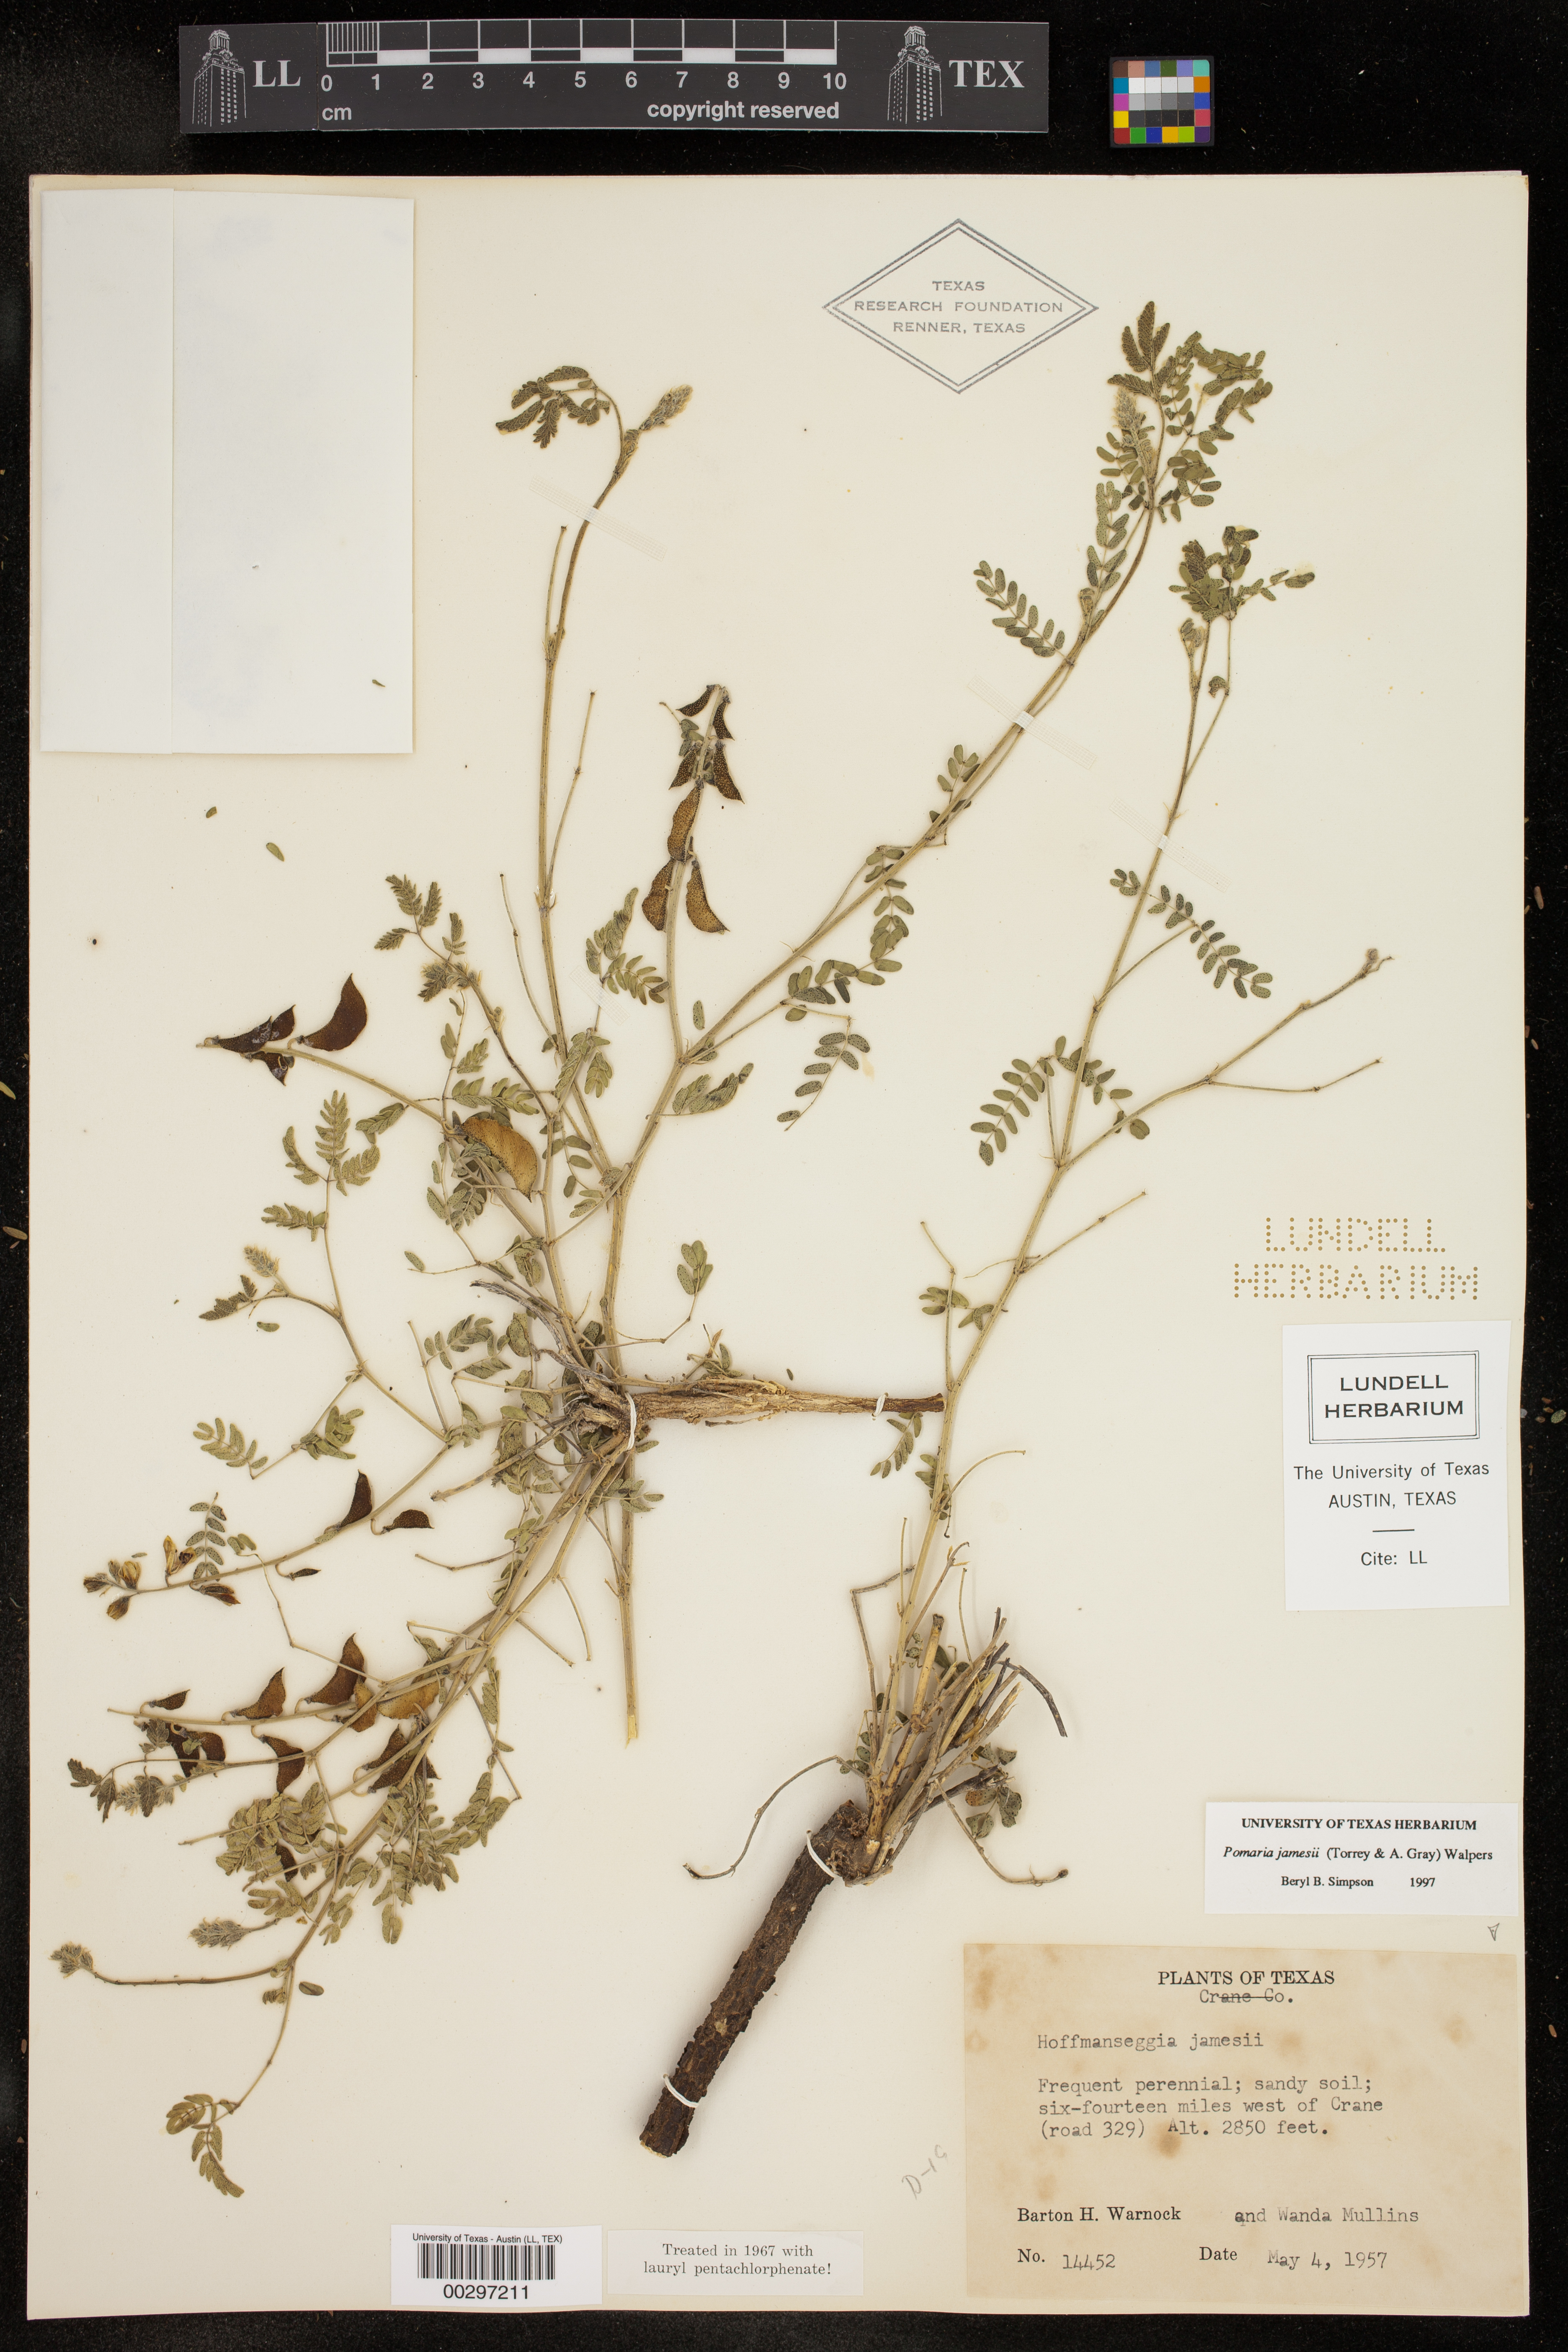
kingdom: Plantae
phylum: Tracheophyta
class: Magnoliopsida
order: Fabales
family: Fabaceae
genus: Pomaria
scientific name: Pomaria jamesii
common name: James' caesalpinia
